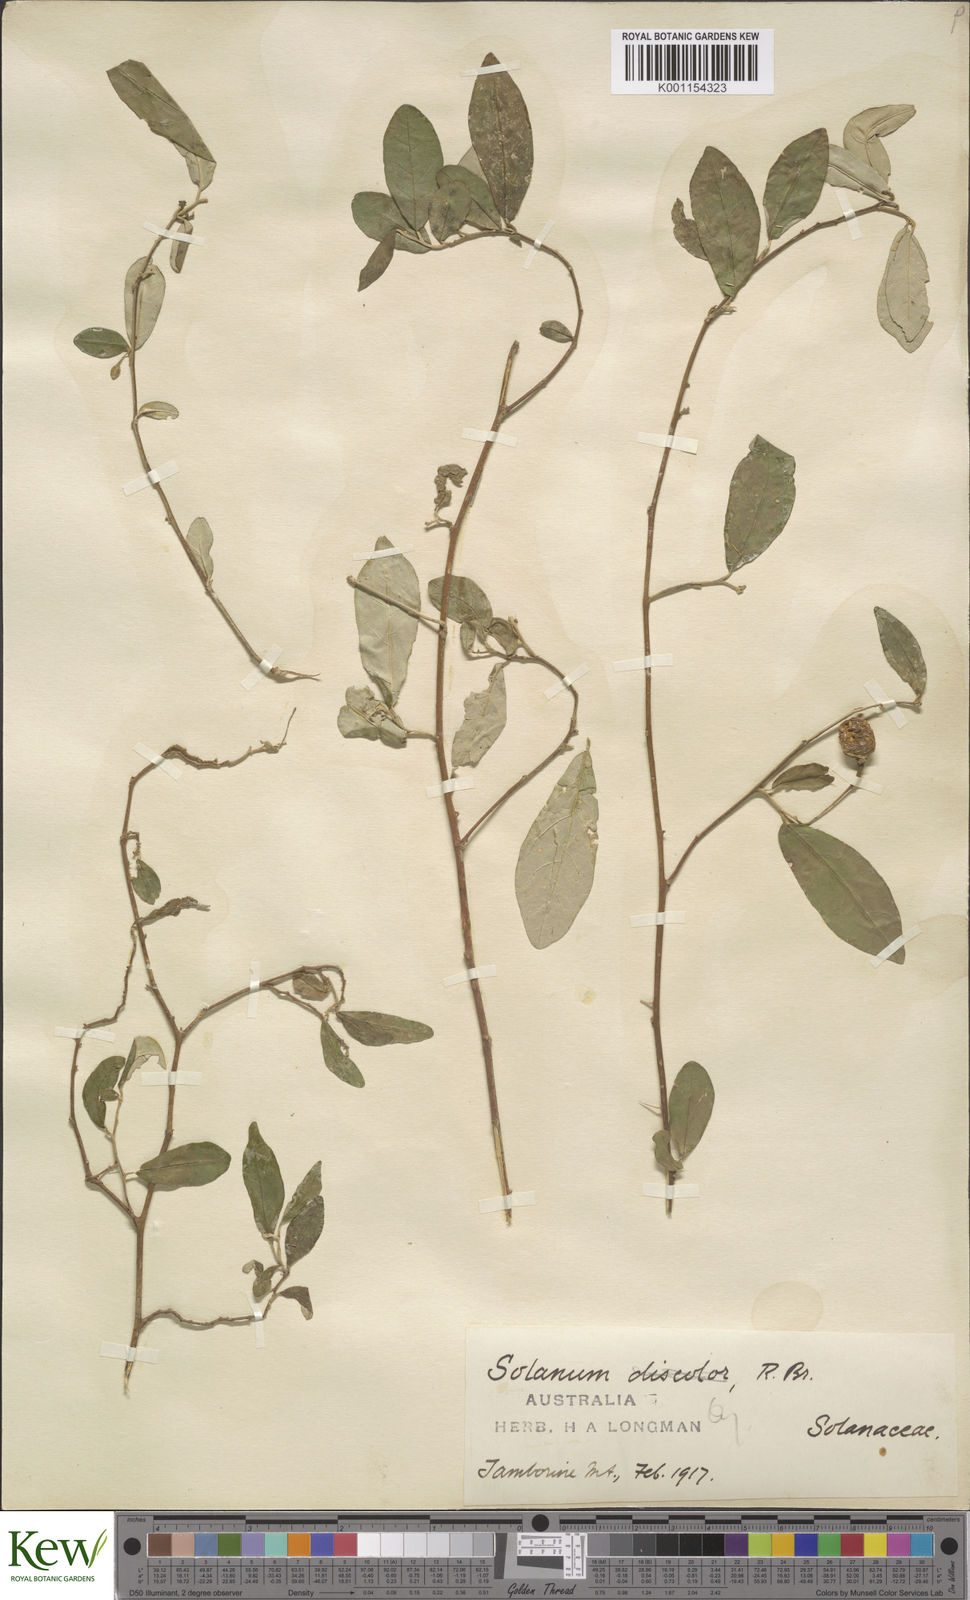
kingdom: Plantae
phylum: Tracheophyta
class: Magnoliopsida
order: Solanales
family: Solanaceae
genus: Solanum
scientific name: Solanum ferocissimum
